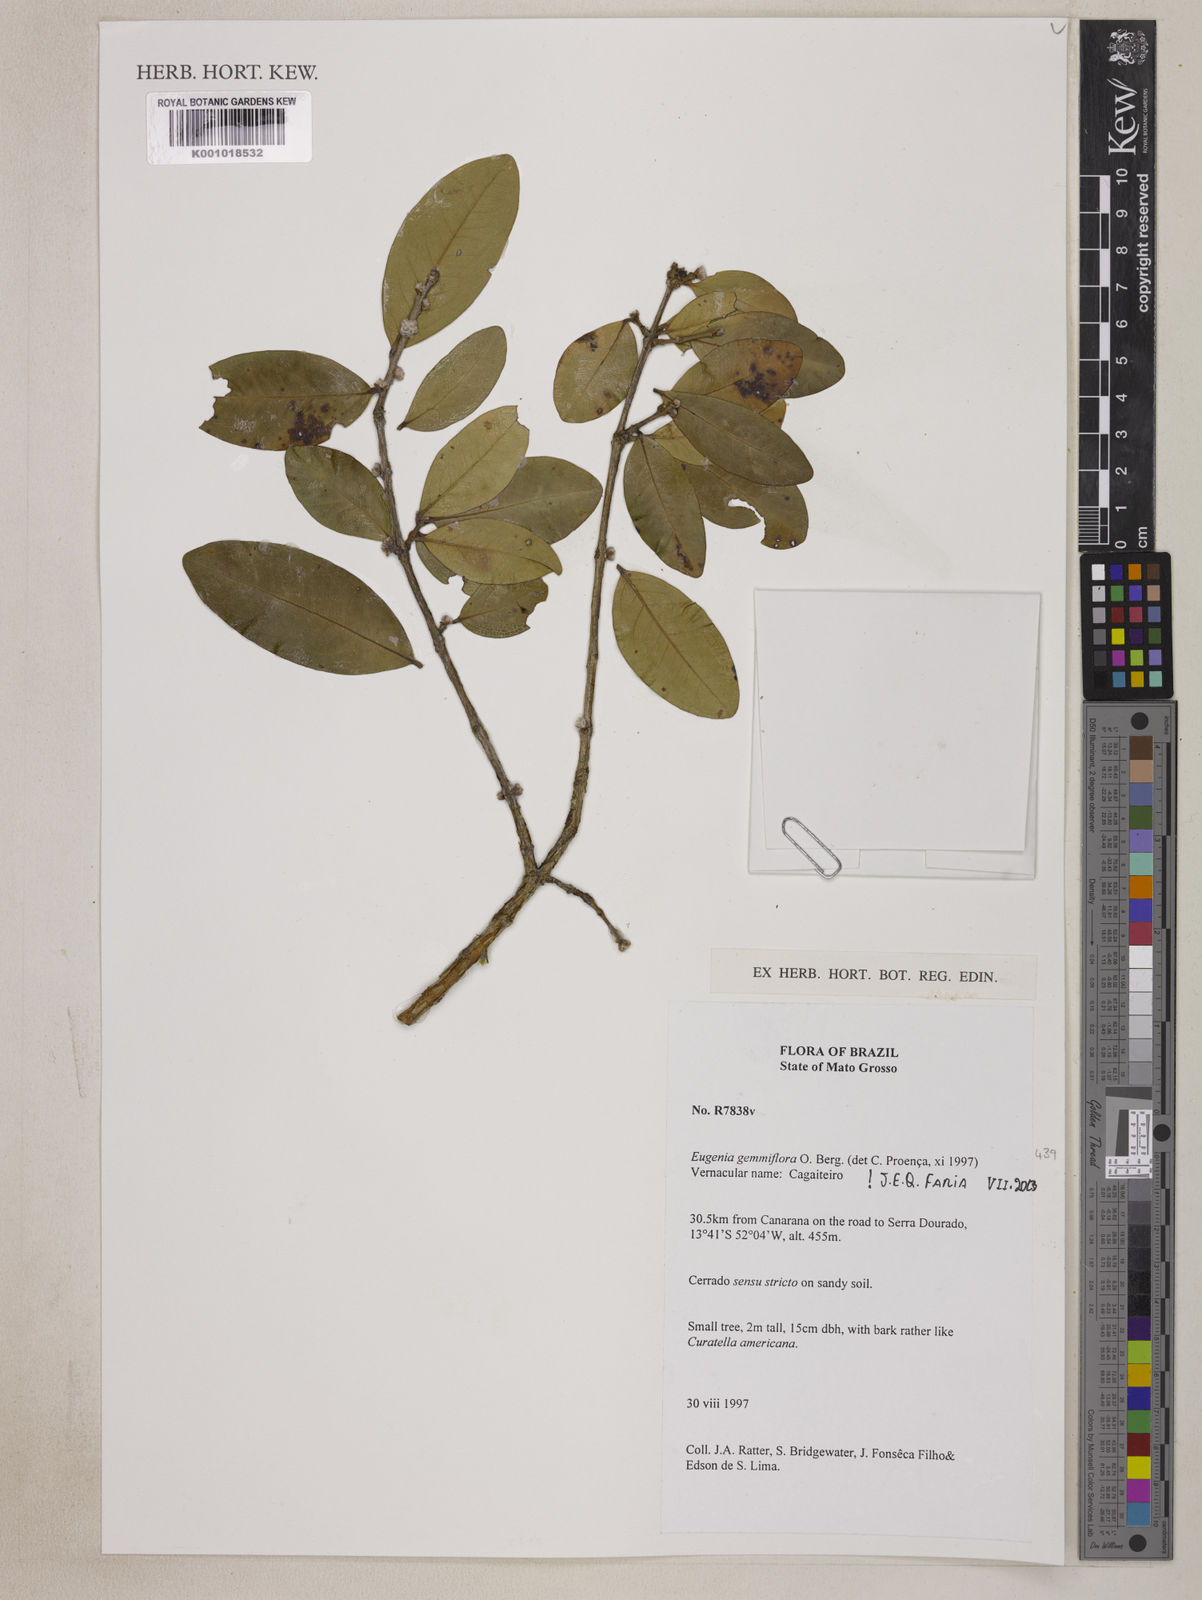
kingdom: Plantae
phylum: Tracheophyta
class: Magnoliopsida
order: Myrtales
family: Myrtaceae
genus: Eugenia
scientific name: Eugenia dysenterica
